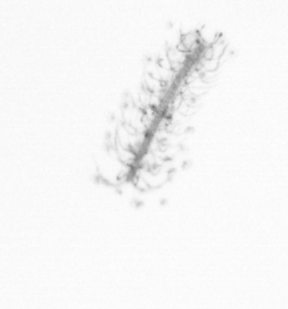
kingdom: Chromista
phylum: Ochrophyta
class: Bacillariophyceae
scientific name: Bacillariophyceae
